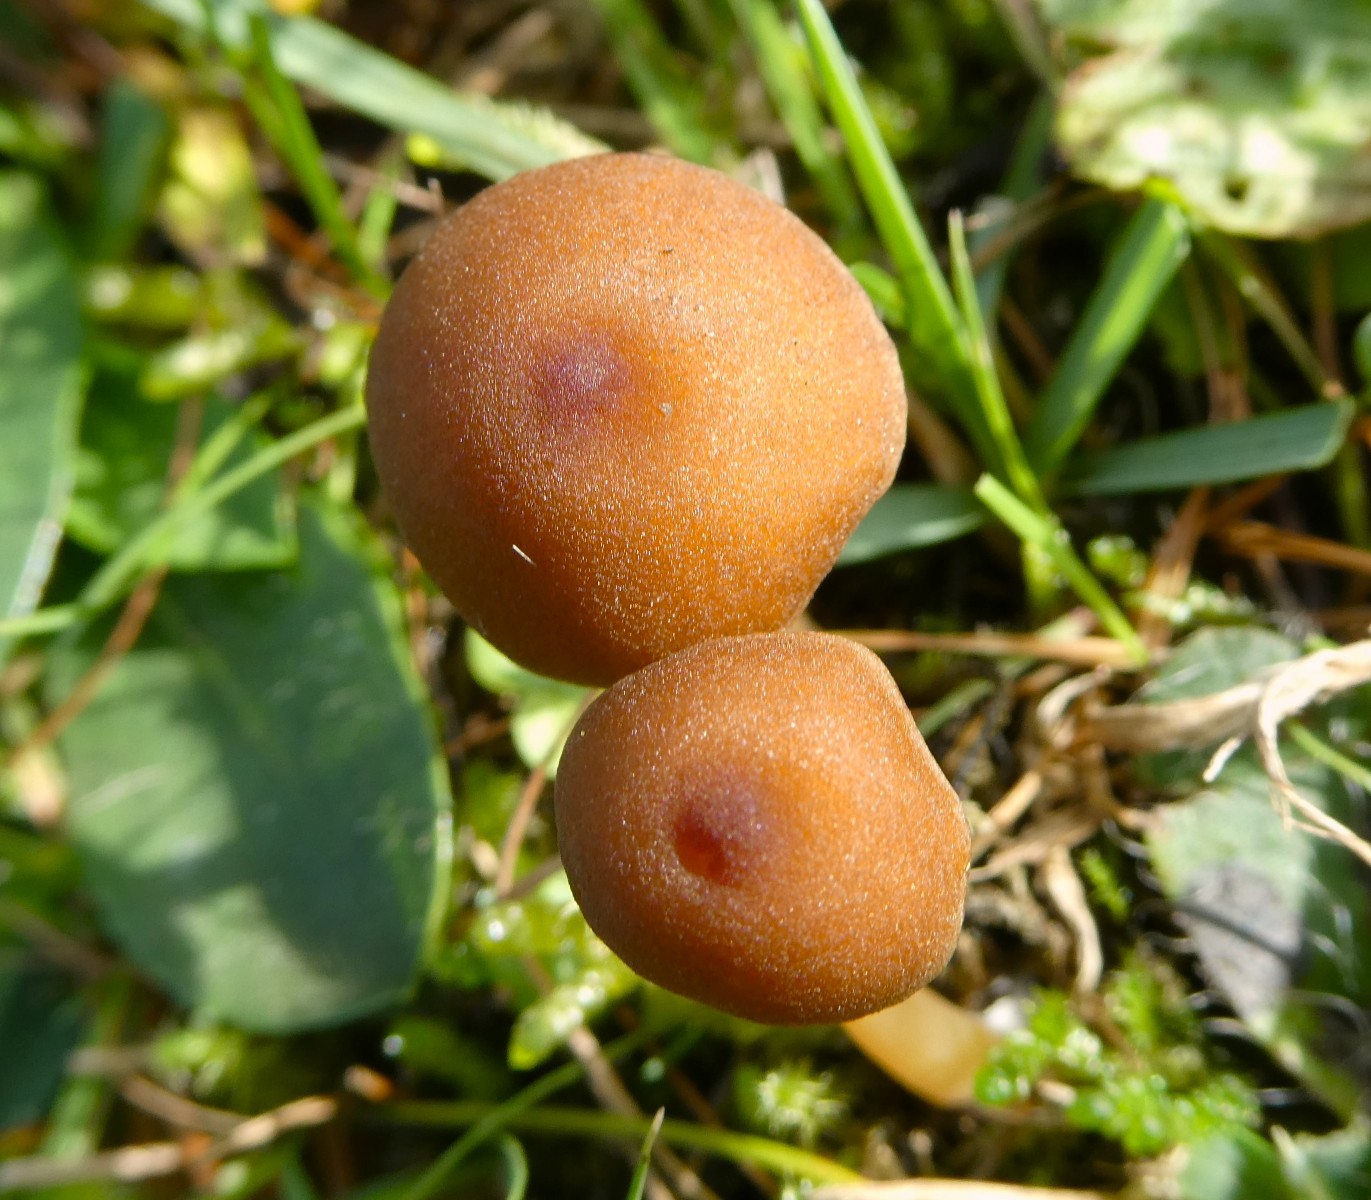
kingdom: Fungi
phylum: Basidiomycota
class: Agaricomycetes
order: Agaricales
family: Entolomataceae
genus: Entoloma
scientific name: Entoloma formosum
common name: brungul rødblad
